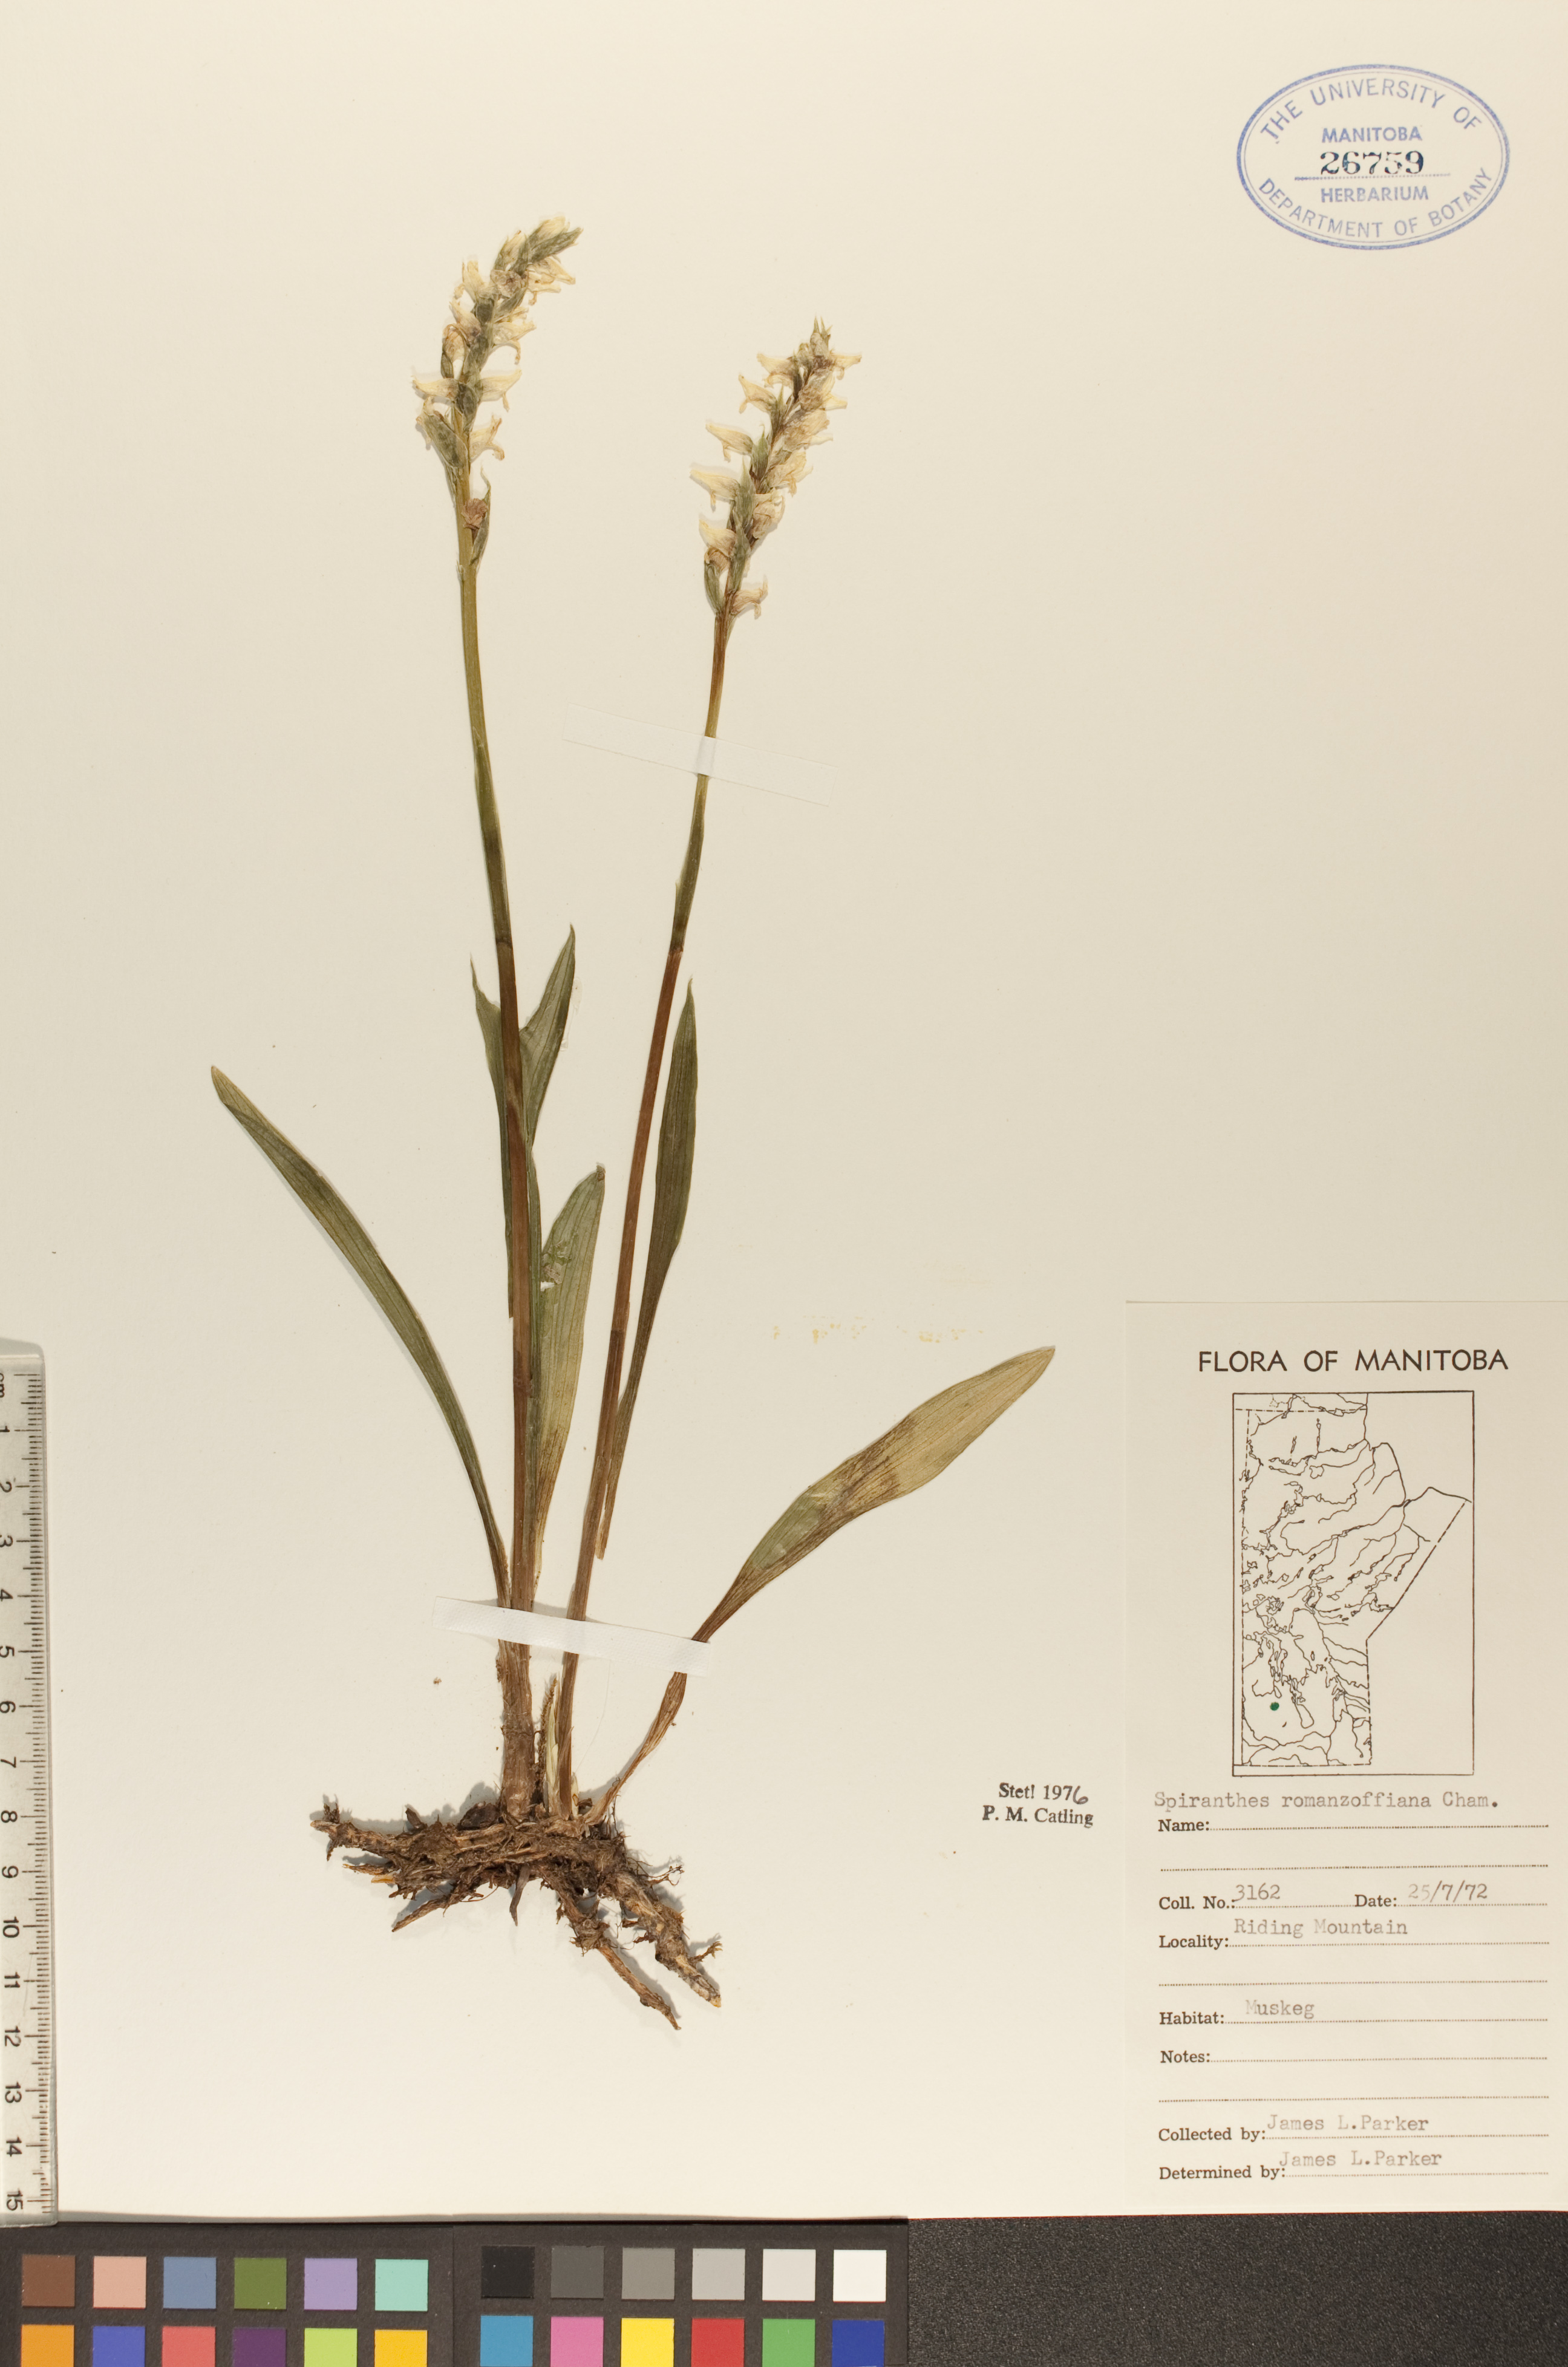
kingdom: Plantae
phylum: Tracheophyta
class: Liliopsida
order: Asparagales
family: Orchidaceae
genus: Spiranthes
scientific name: Spiranthes romanzoffiana
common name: Irish lady's-tresses
